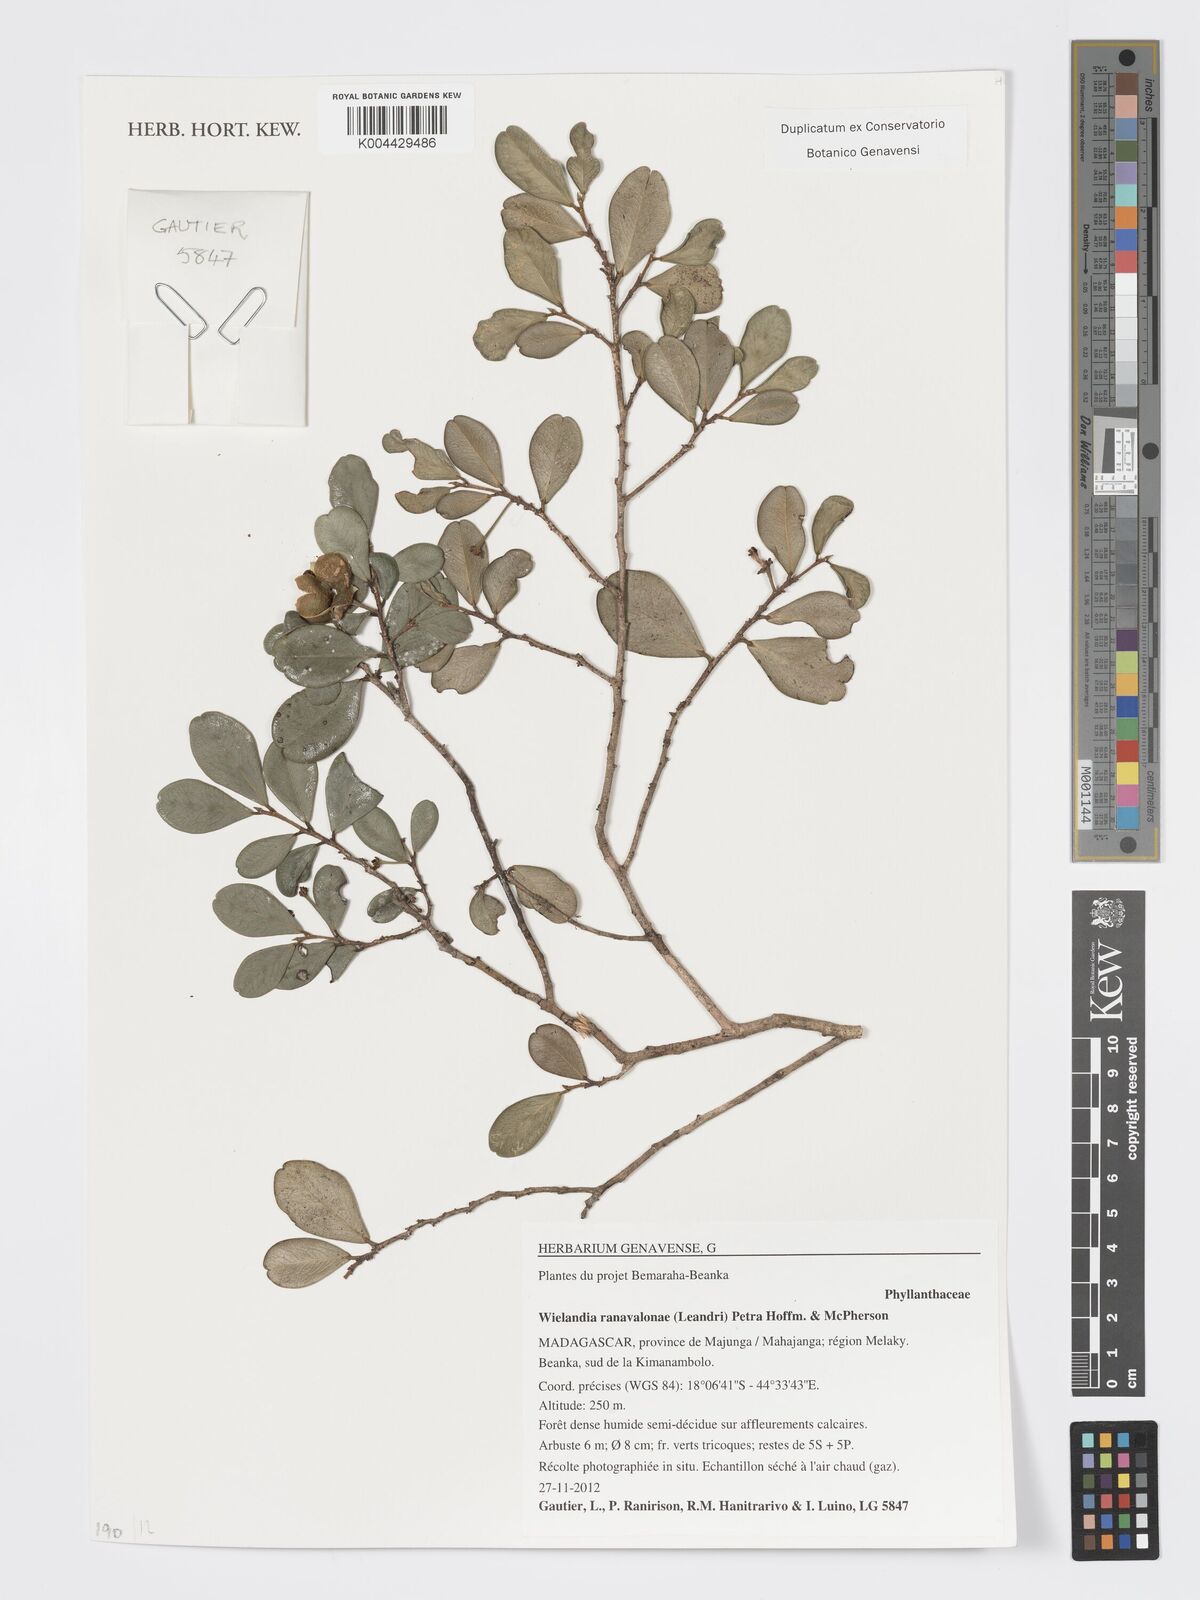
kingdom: Plantae
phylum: Tracheophyta
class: Magnoliopsida
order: Malpighiales
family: Phyllanthaceae
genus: Wielandia
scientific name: Wielandia ranavalonae
